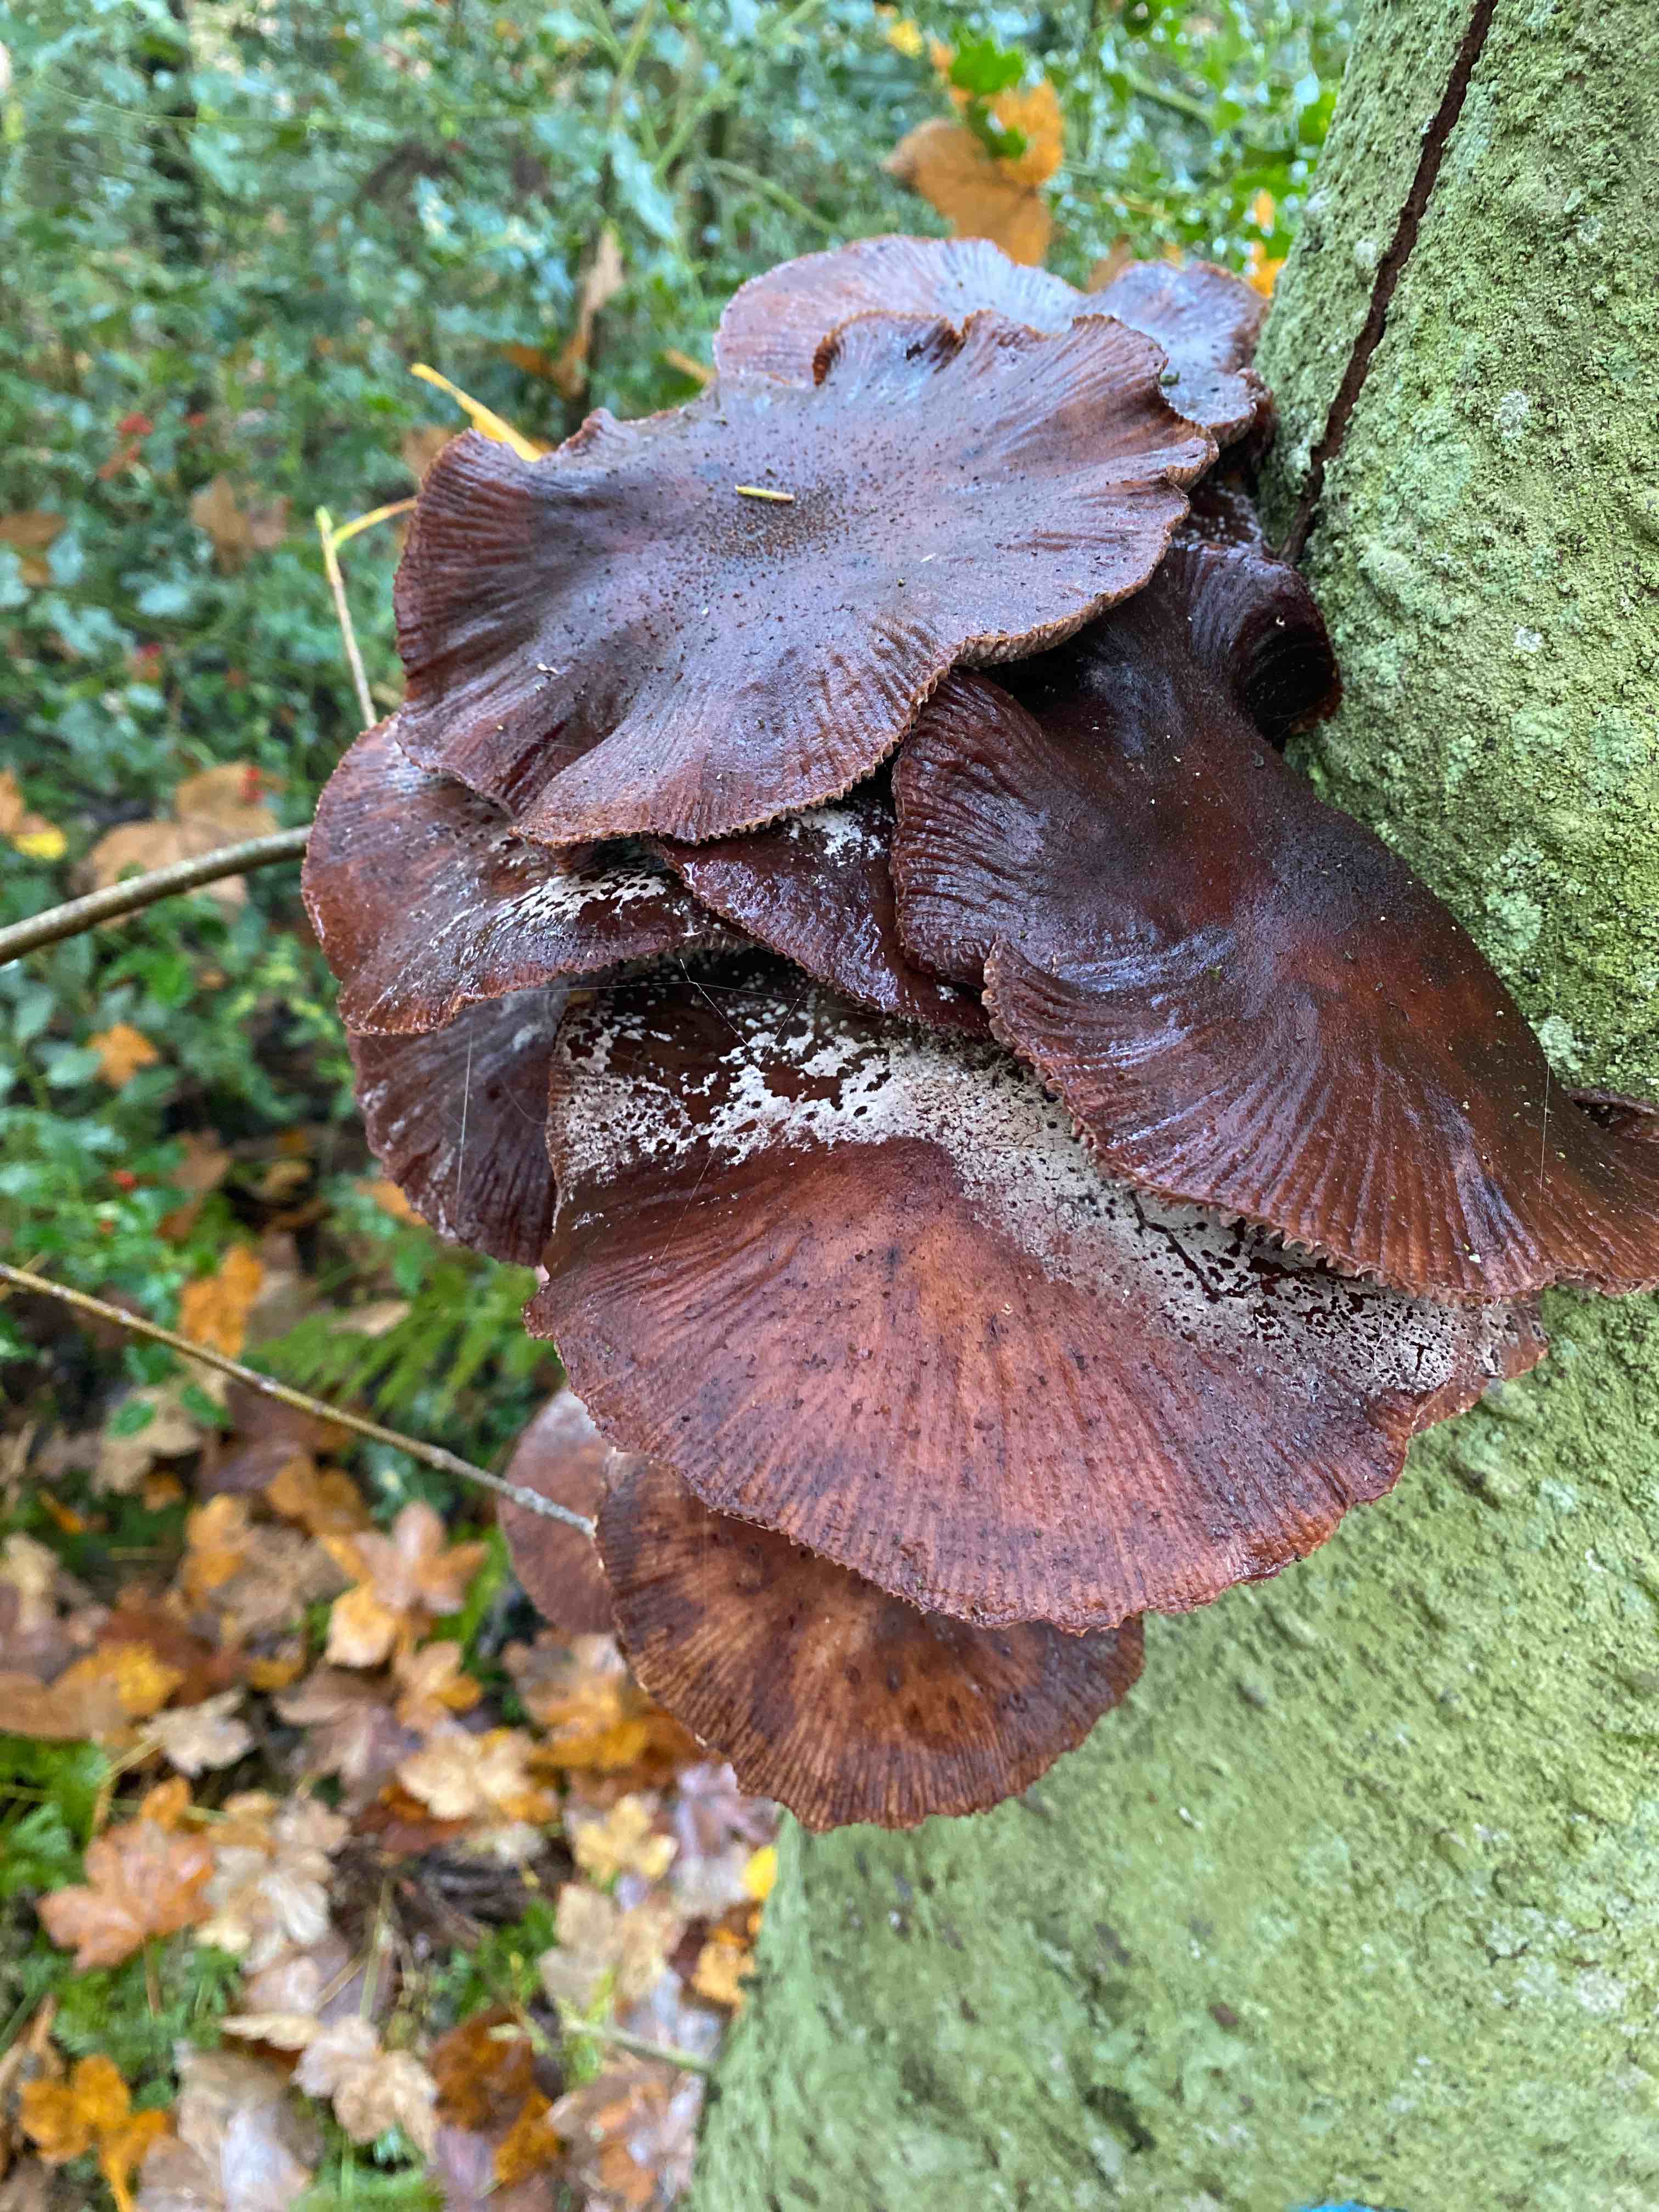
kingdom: Fungi
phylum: Basidiomycota
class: Agaricomycetes
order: Agaricales
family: Physalacriaceae
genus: Armillaria
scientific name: Armillaria
